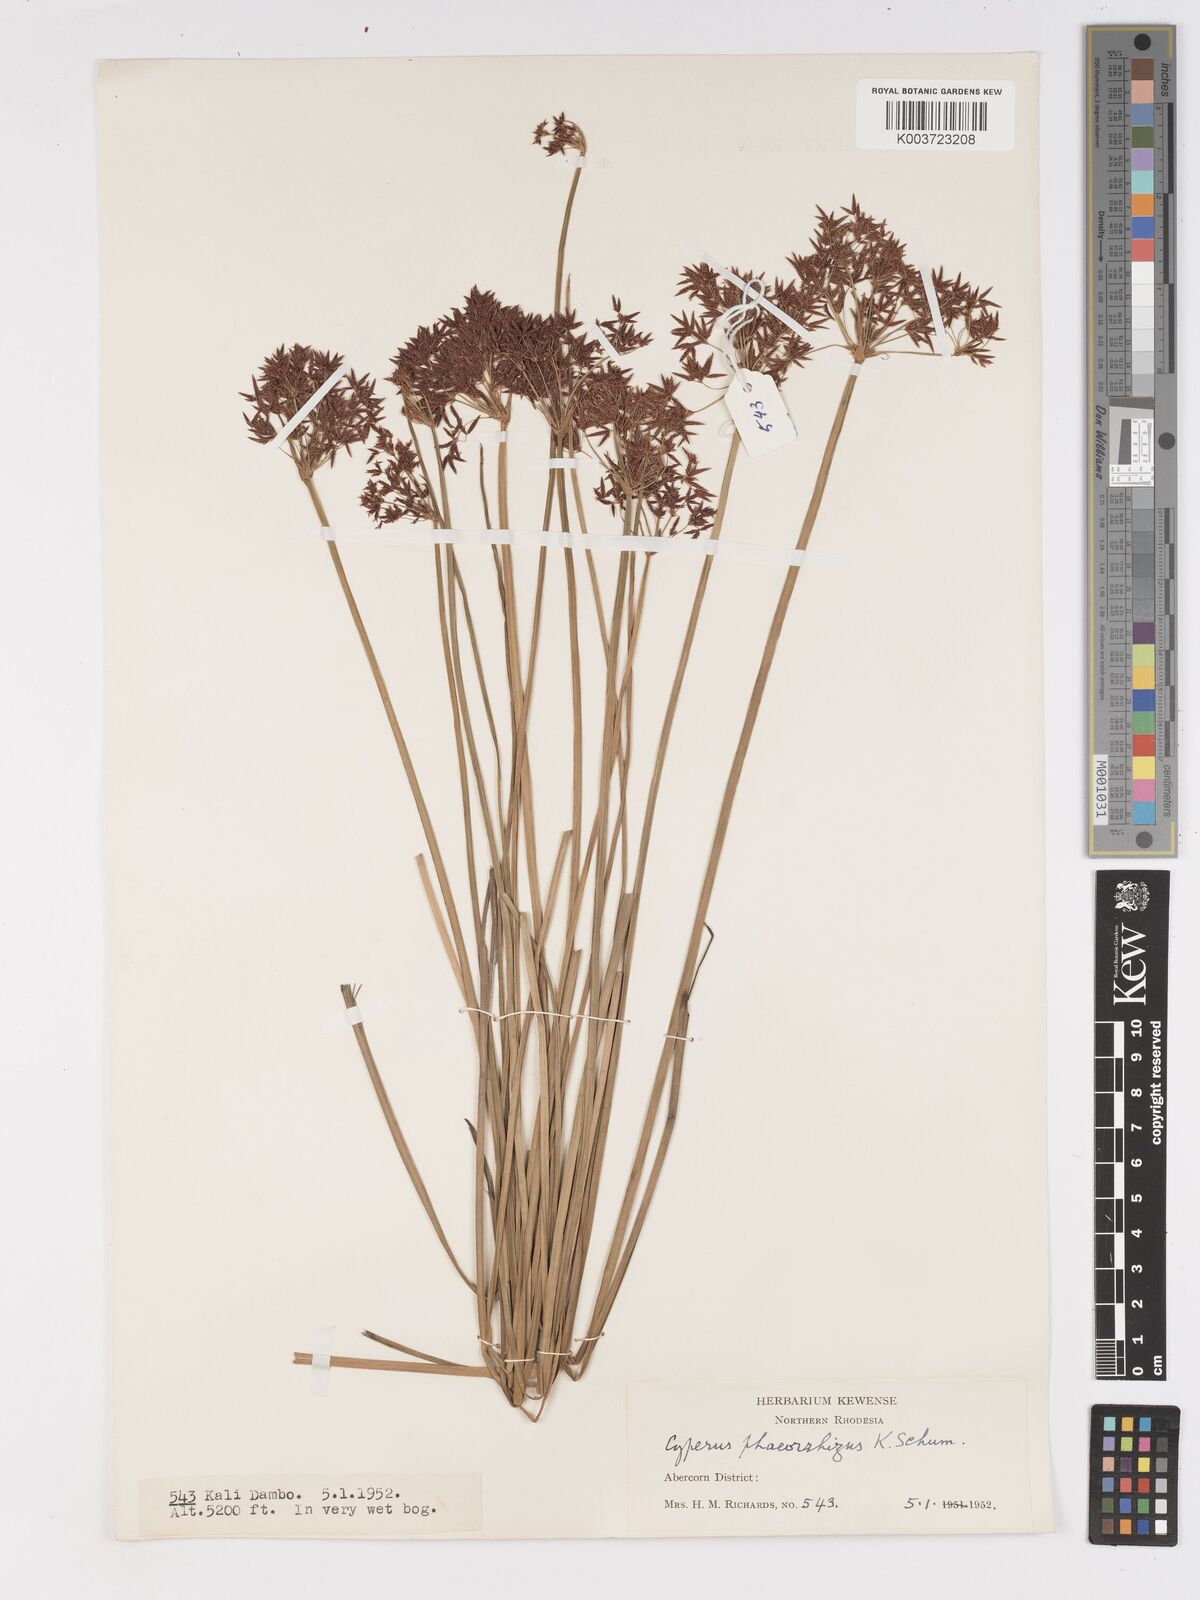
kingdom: Plantae
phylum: Tracheophyta
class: Liliopsida
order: Poales
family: Cyperaceae
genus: Cyperus
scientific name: Cyperus haspan
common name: Haspan flatsedge
